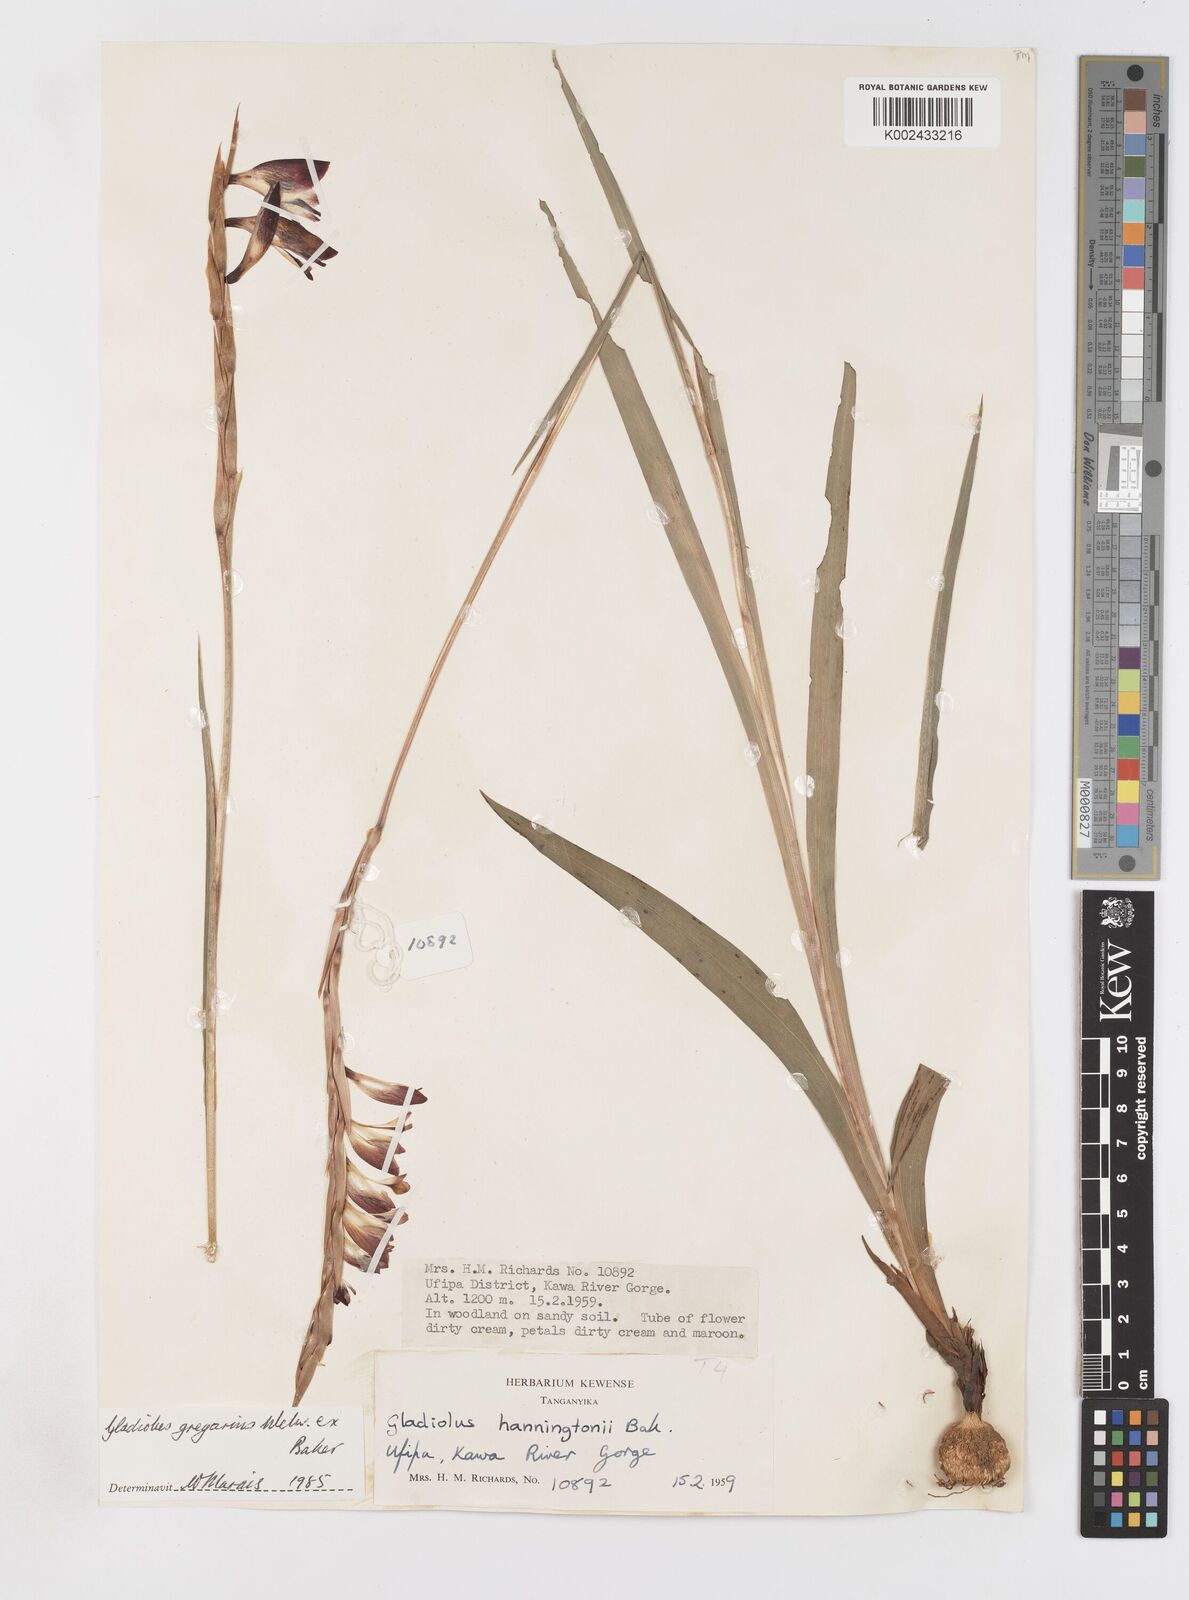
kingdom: Plantae
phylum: Tracheophyta
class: Liliopsida
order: Asparagales
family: Iridaceae
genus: Gladiolus
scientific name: Gladiolus gregarius
